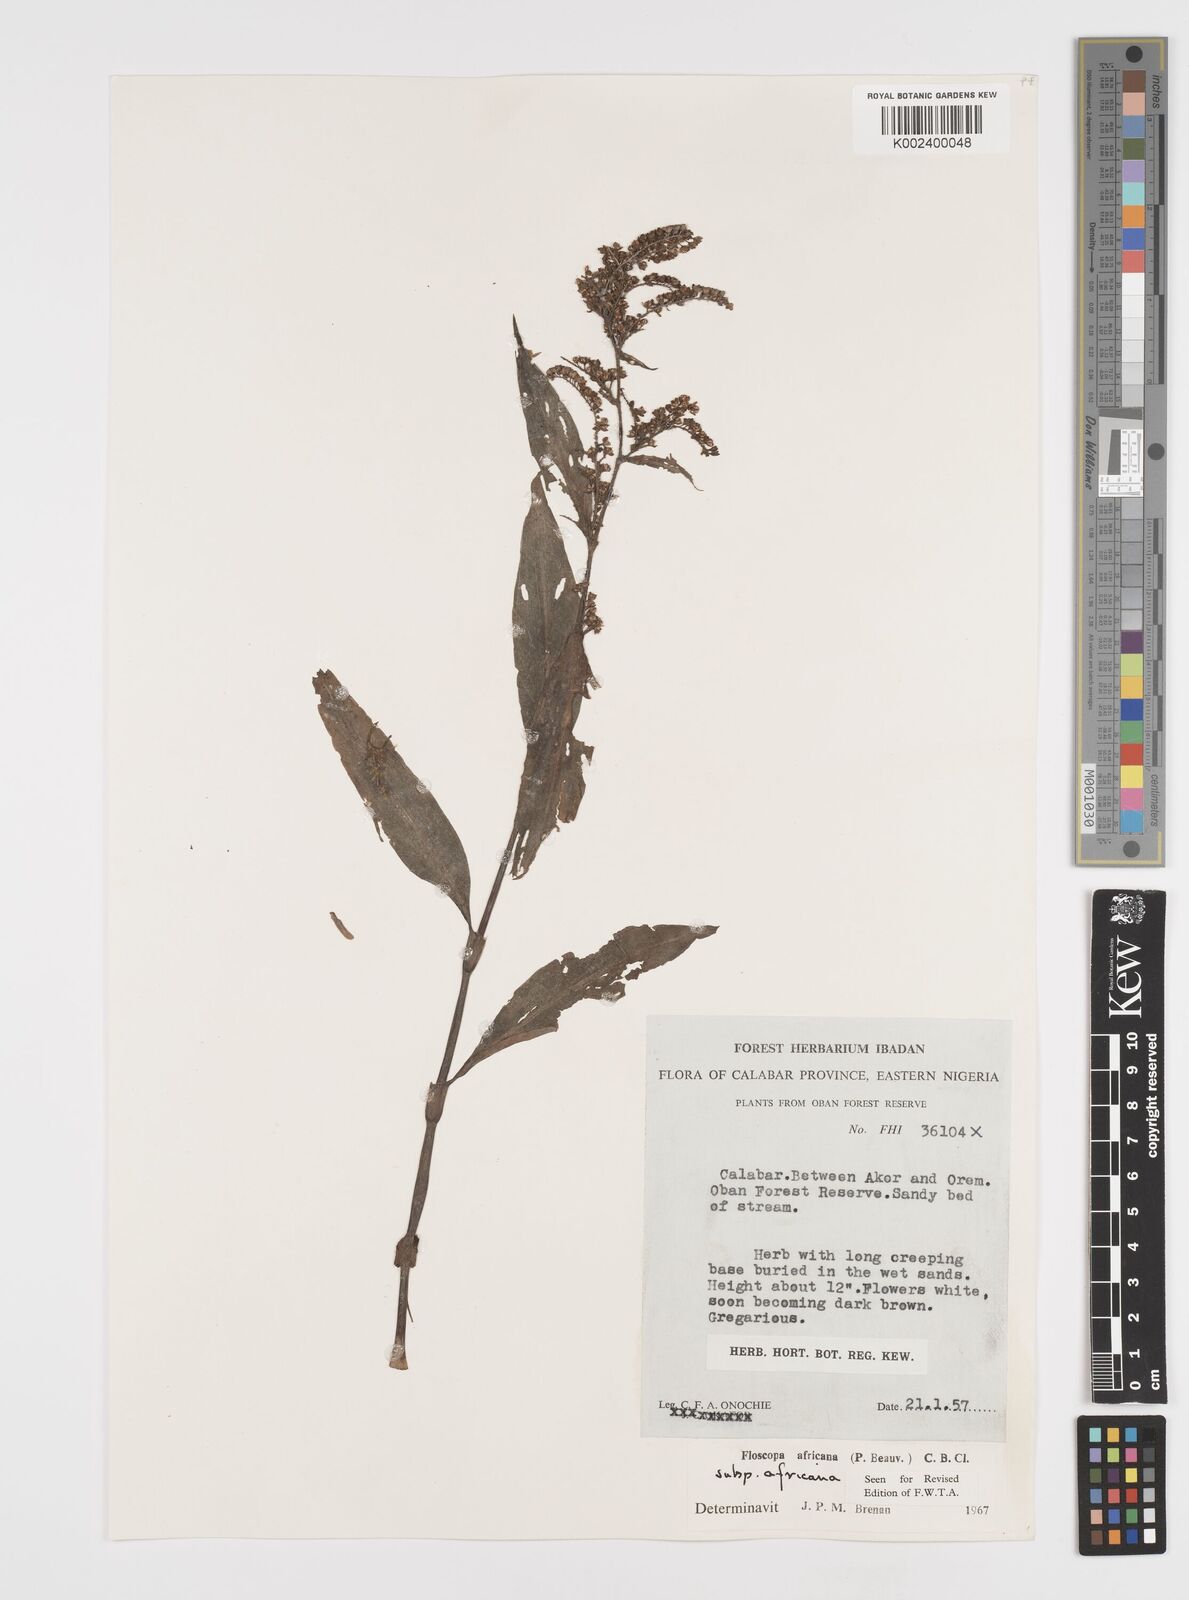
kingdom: Plantae
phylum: Tracheophyta
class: Liliopsida
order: Commelinales
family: Commelinaceae
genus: Floscopa
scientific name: Floscopa africana
